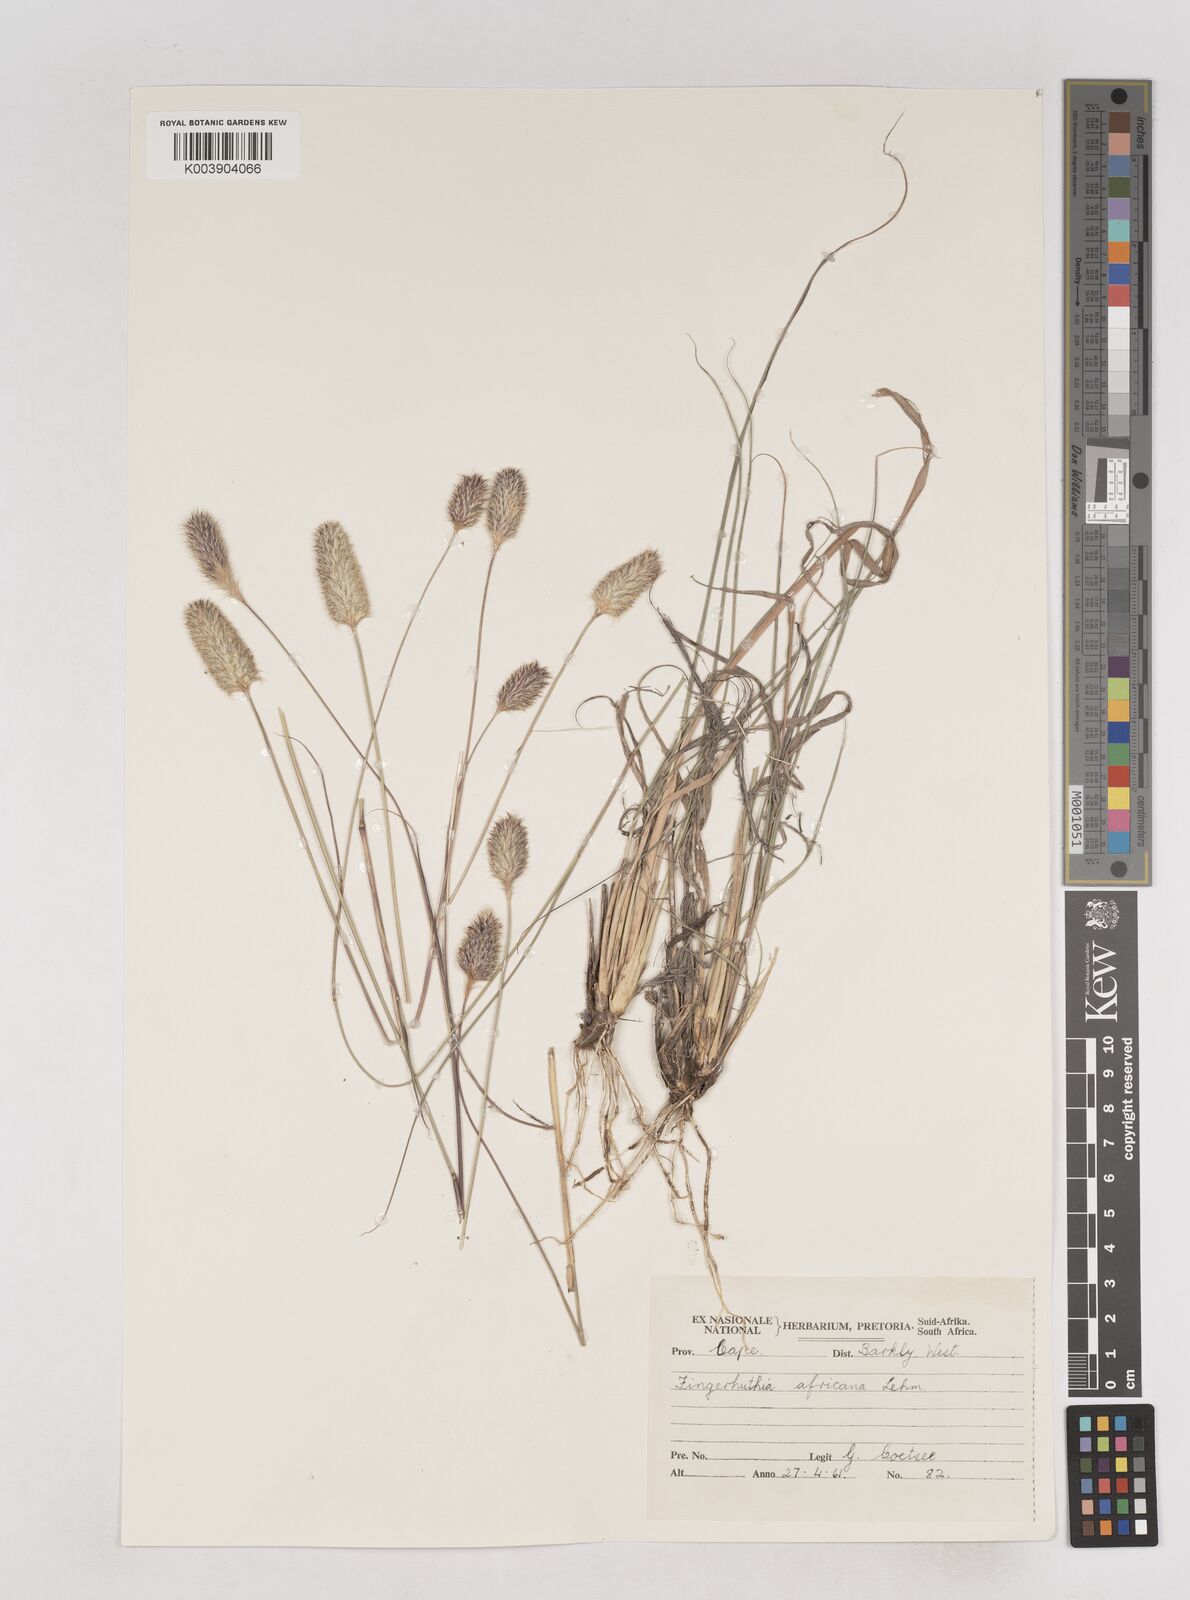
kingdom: Plantae
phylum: Tracheophyta
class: Liliopsida
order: Poales
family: Poaceae
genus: Fingerhuthia
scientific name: Fingerhuthia africana
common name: Zulu fescue
